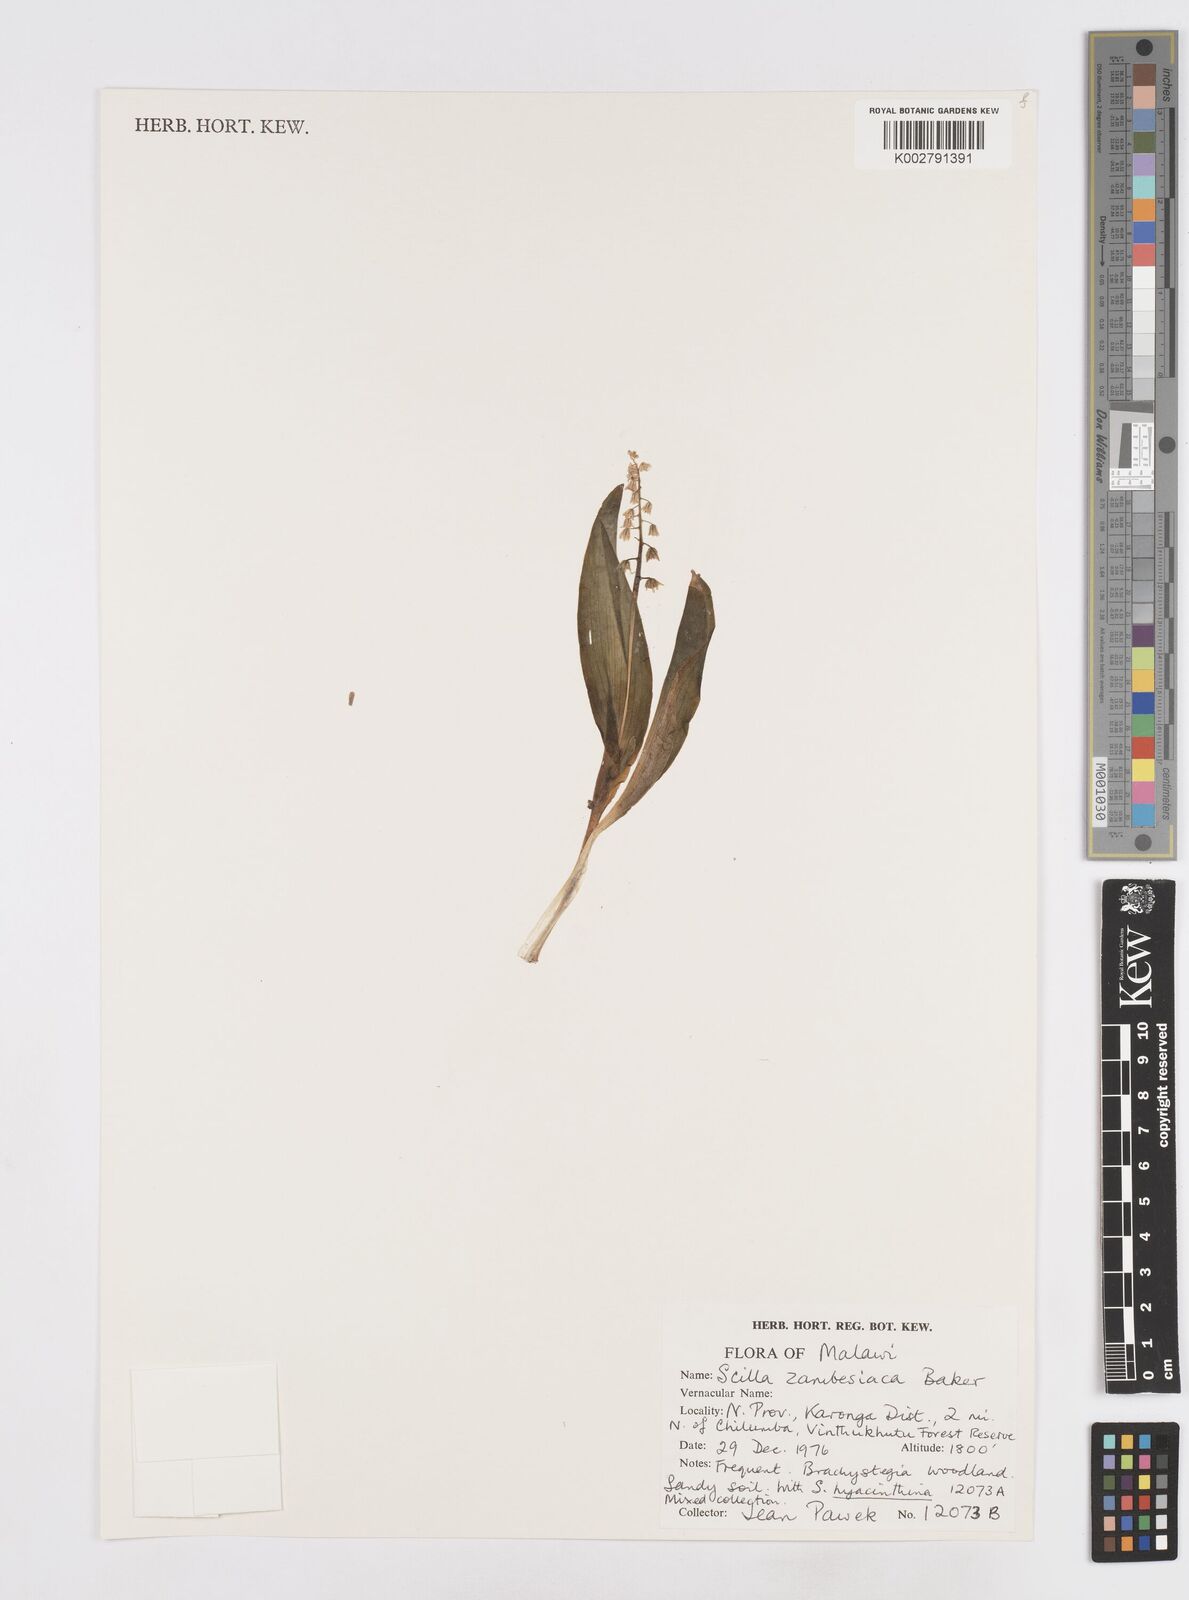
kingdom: Plantae
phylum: Tracheophyta
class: Liliopsida
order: Asparagales
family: Asparagaceae
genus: Ledebouria
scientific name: Ledebouria zambesiaca
